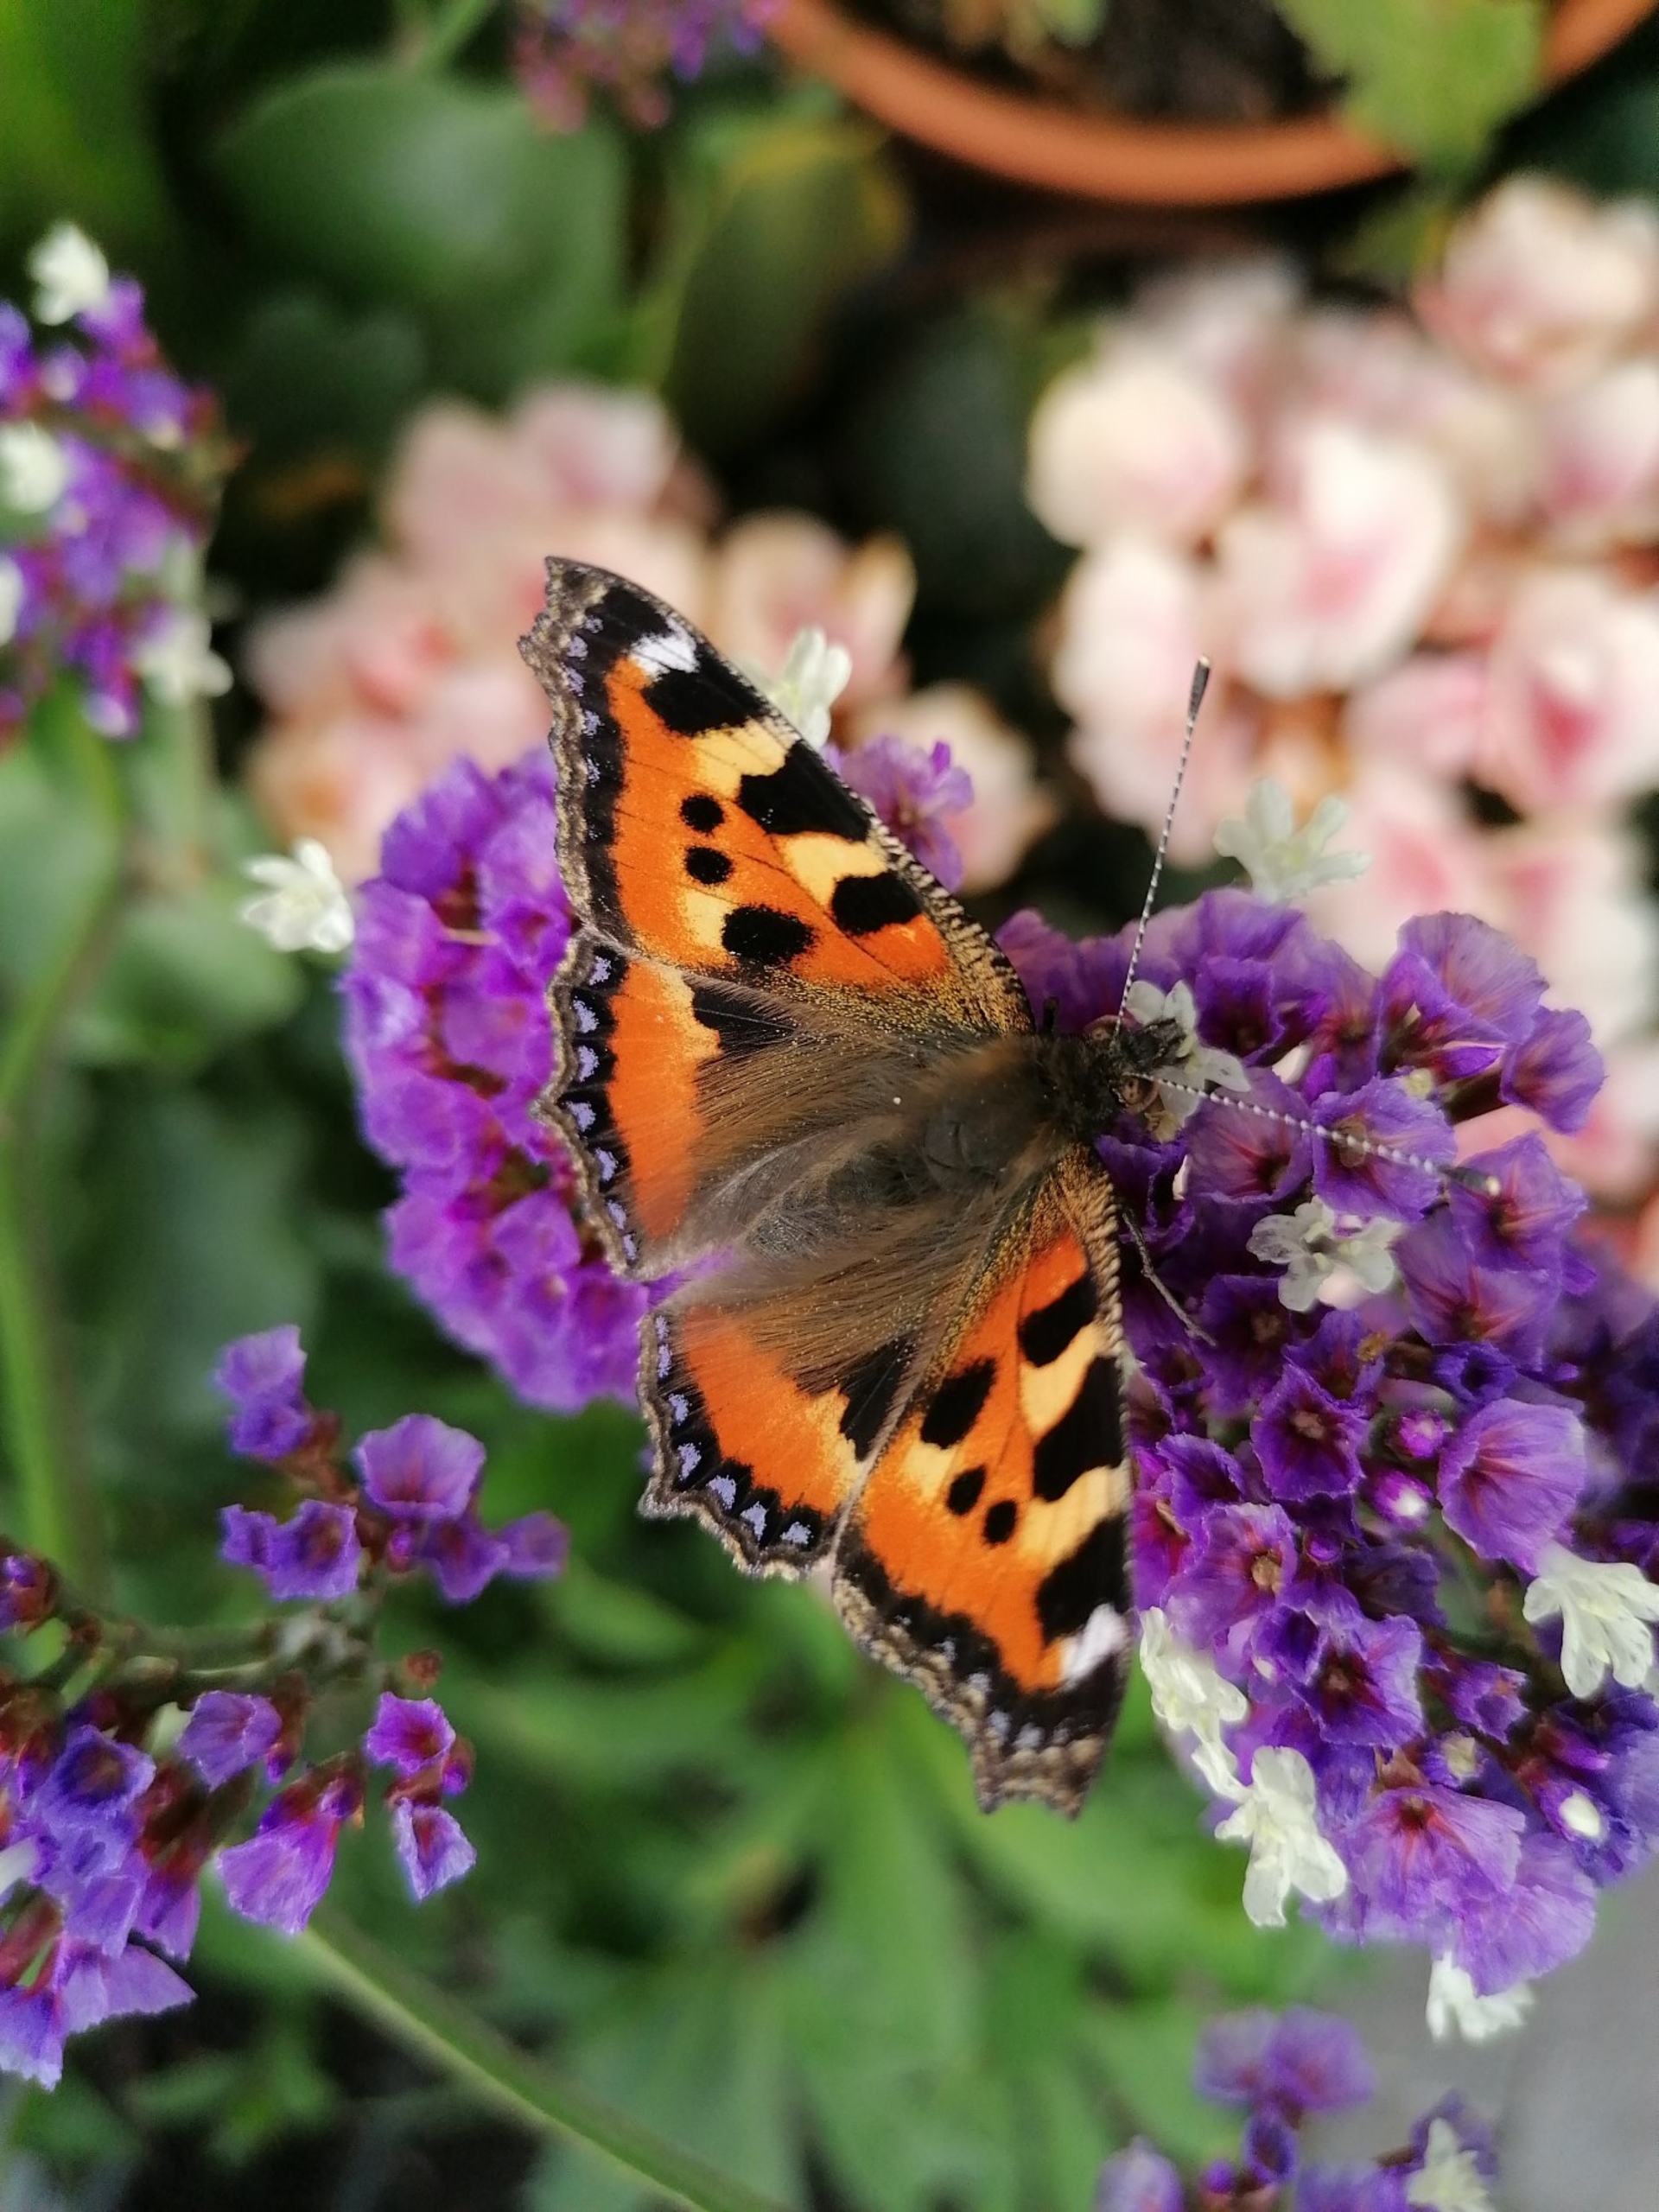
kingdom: Animalia
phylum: Arthropoda
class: Insecta
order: Lepidoptera
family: Nymphalidae
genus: Aglais
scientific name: Aglais urticae
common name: Nældens takvinge
